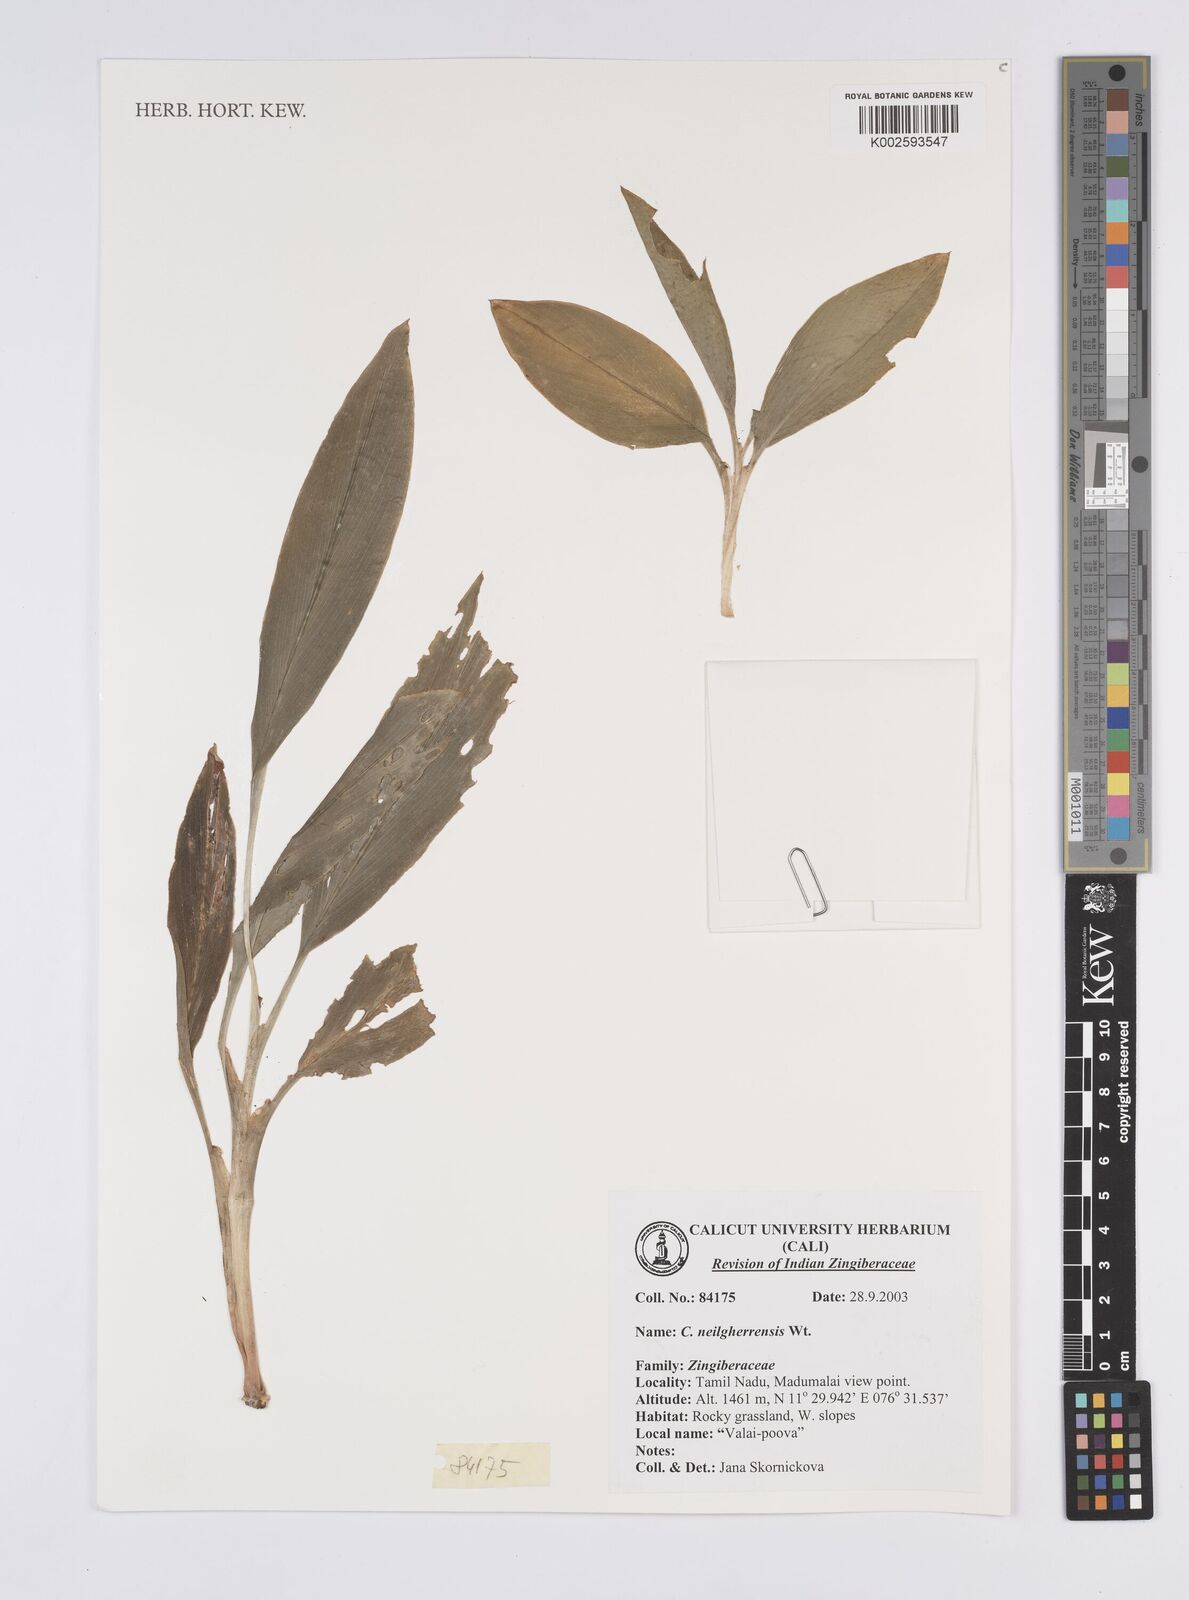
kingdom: Plantae
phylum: Tracheophyta
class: Liliopsida
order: Zingiberales
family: Zingiberaceae
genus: Curcuma
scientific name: Curcuma neilgherrensis
